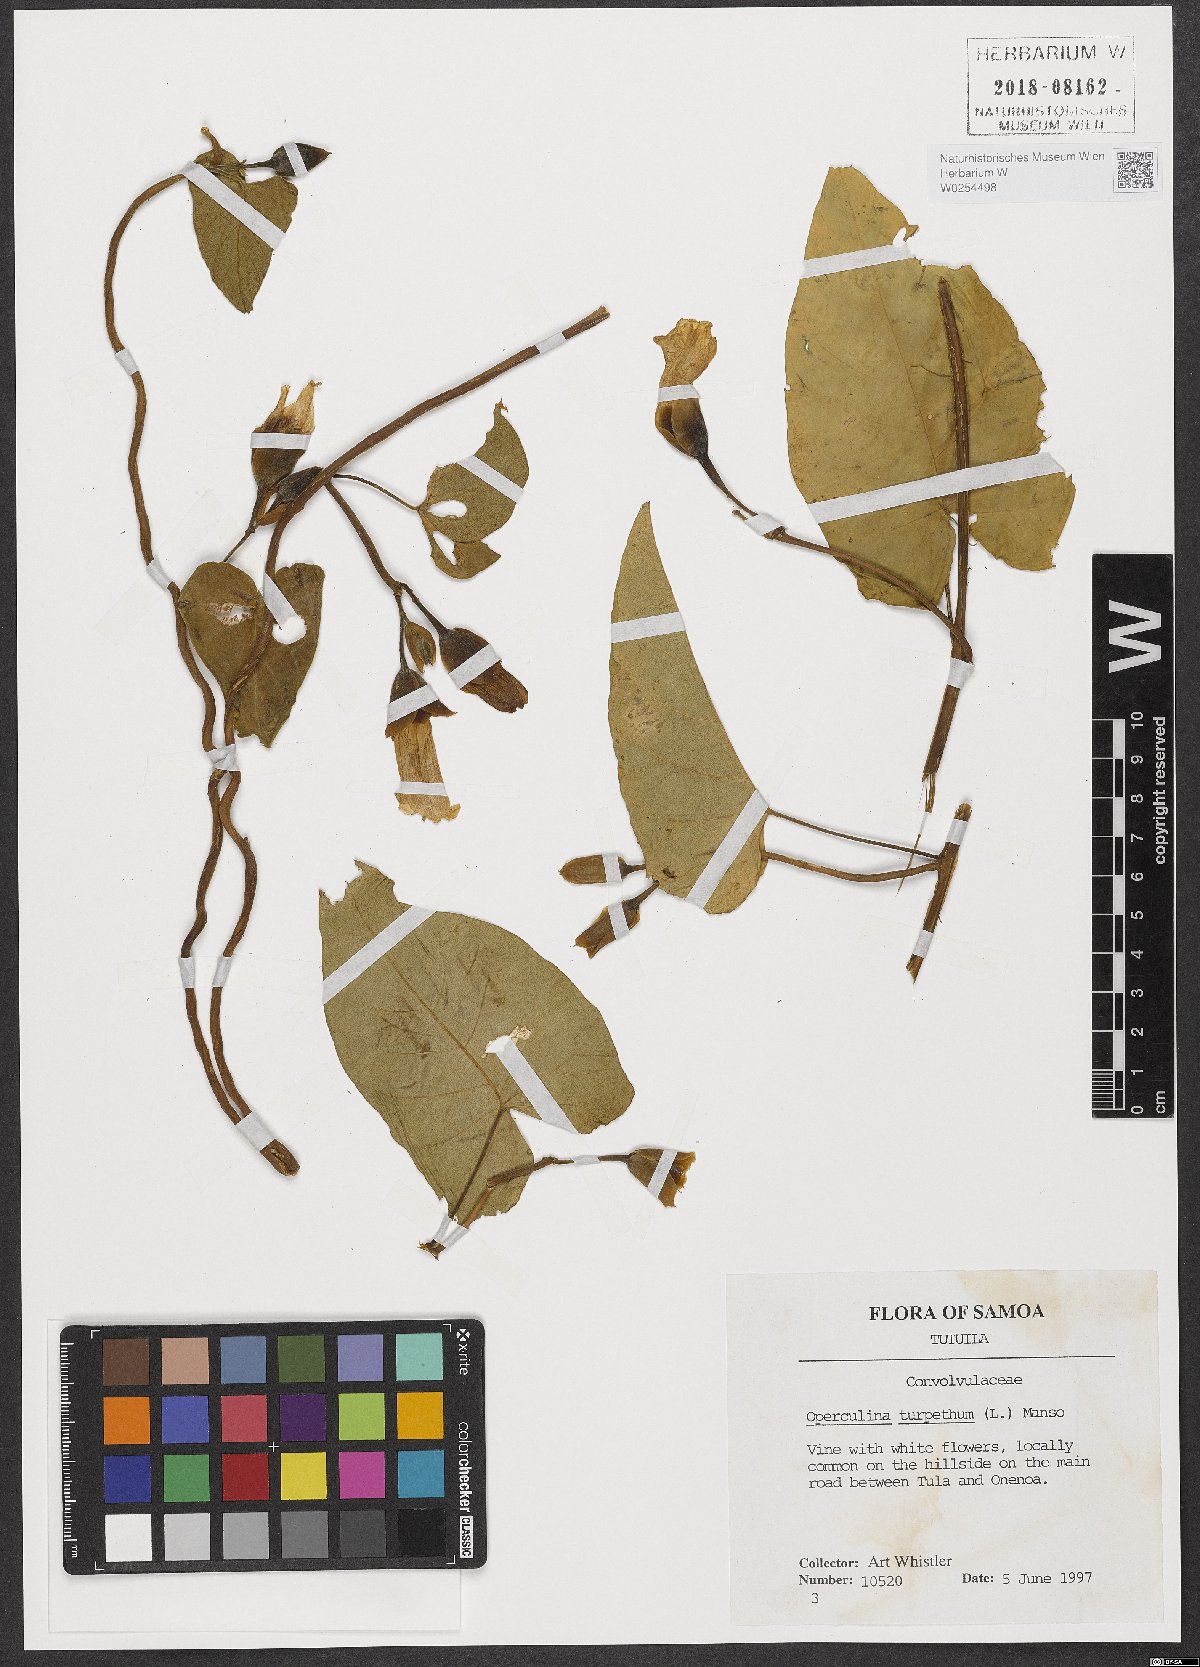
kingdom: Plantae
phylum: Tracheophyta
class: Magnoliopsida
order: Solanales
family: Convolvulaceae
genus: Operculina
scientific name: Operculina turpethum
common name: Transparent wood-rose
